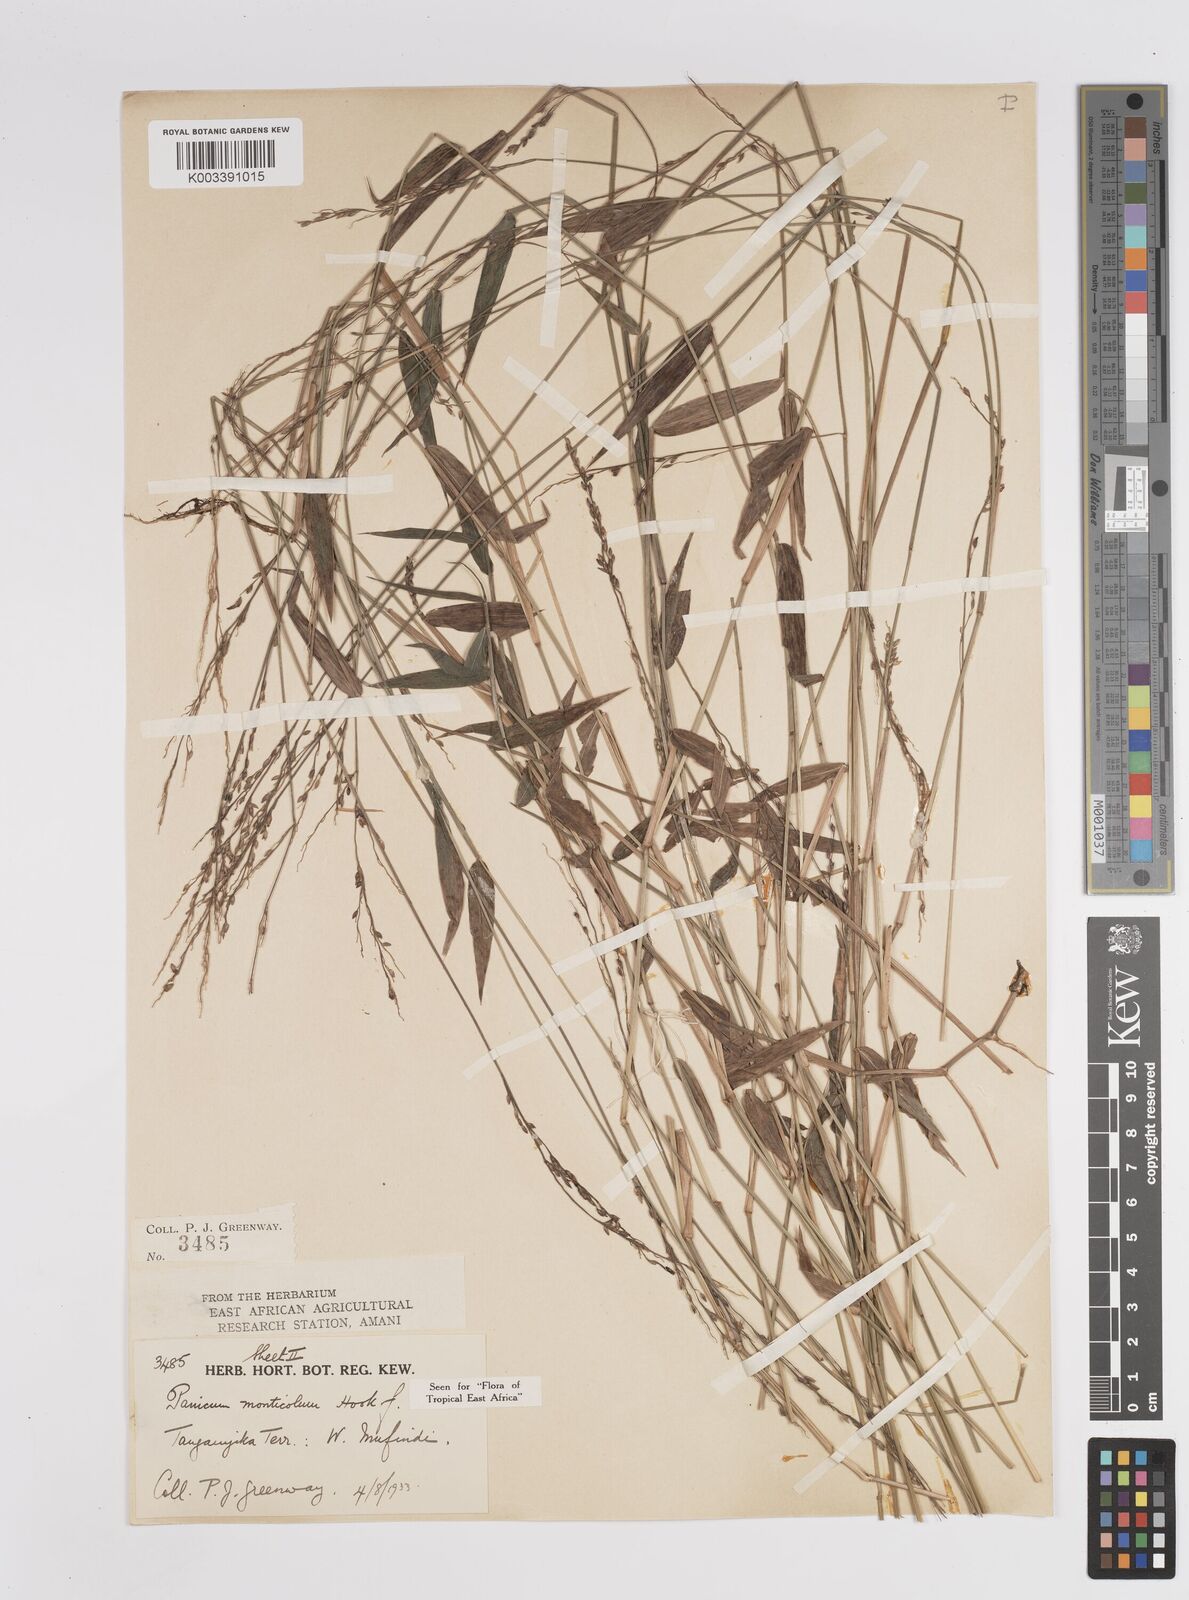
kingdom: Plantae
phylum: Tracheophyta
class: Liliopsida
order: Poales
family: Poaceae
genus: Panicum
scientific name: Panicum monticola
